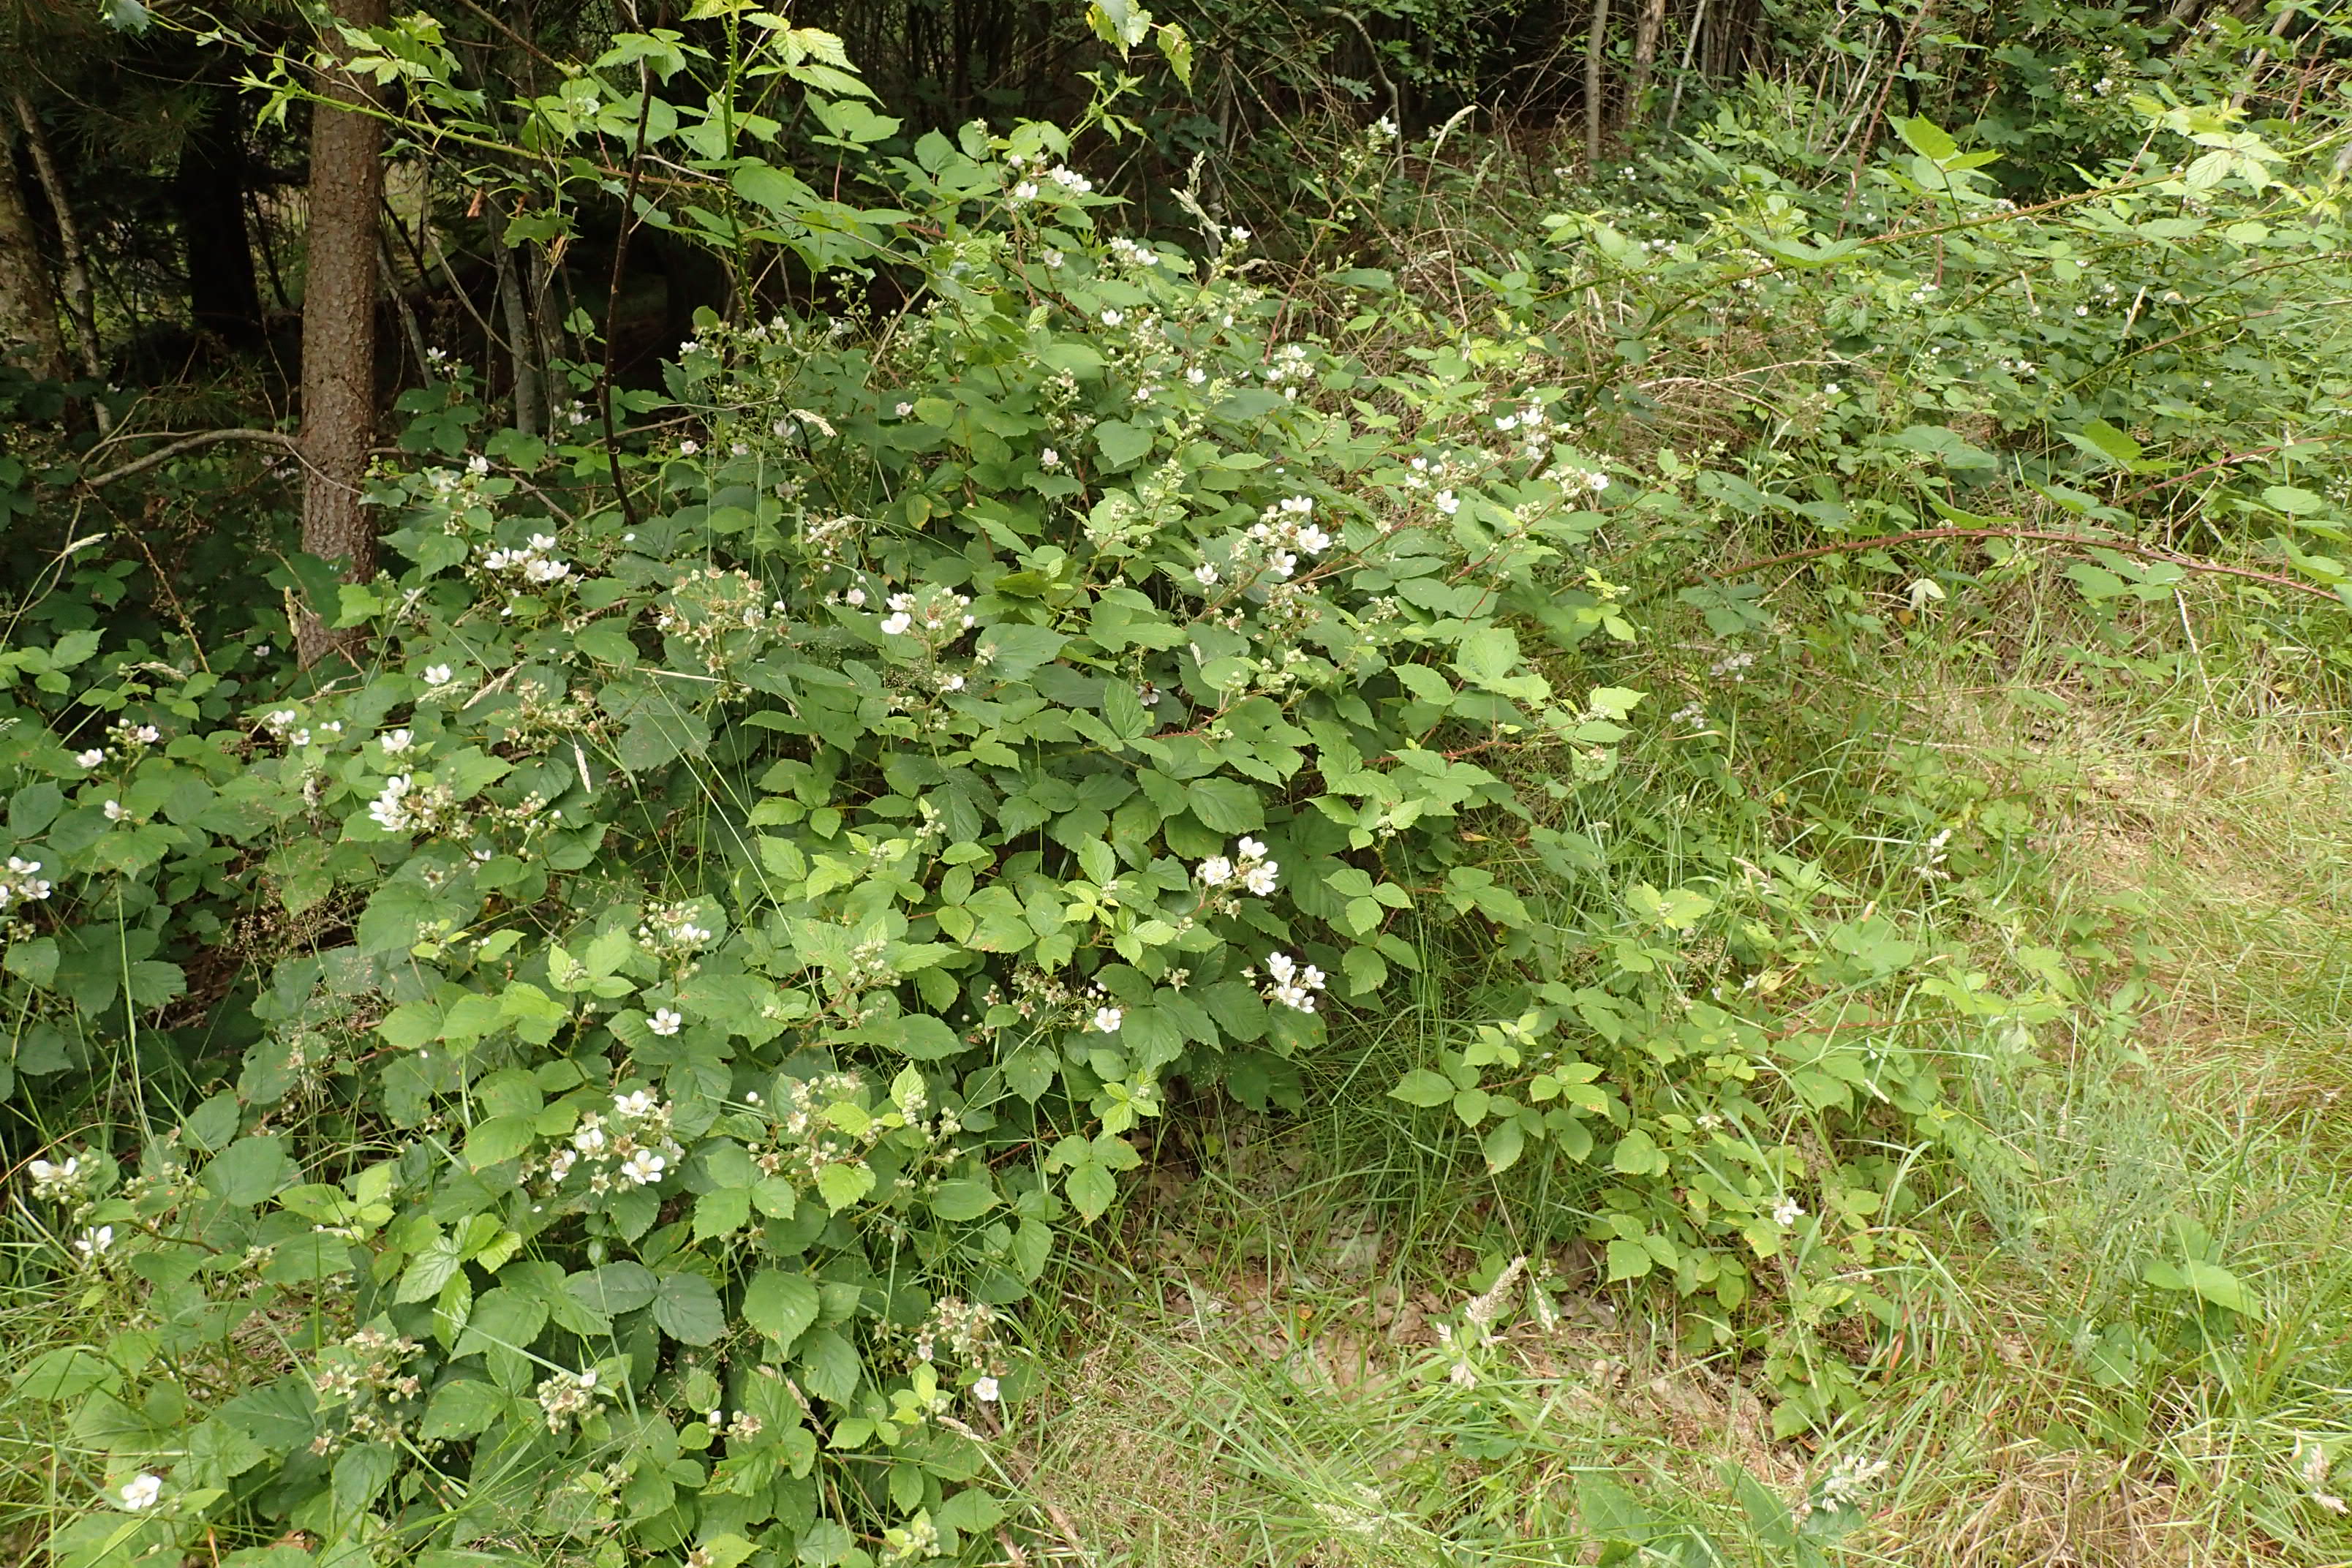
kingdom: Plantae
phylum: Tracheophyta
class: Magnoliopsida
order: Rosales
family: Rosaceae
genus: Rubus
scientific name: Rubus infestus
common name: Klotornet brombær
